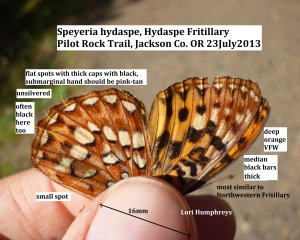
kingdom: Animalia
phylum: Arthropoda
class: Insecta
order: Lepidoptera
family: Nymphalidae
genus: Speyeria
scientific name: Speyeria hydaspe
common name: Hydaspe Fritillary
